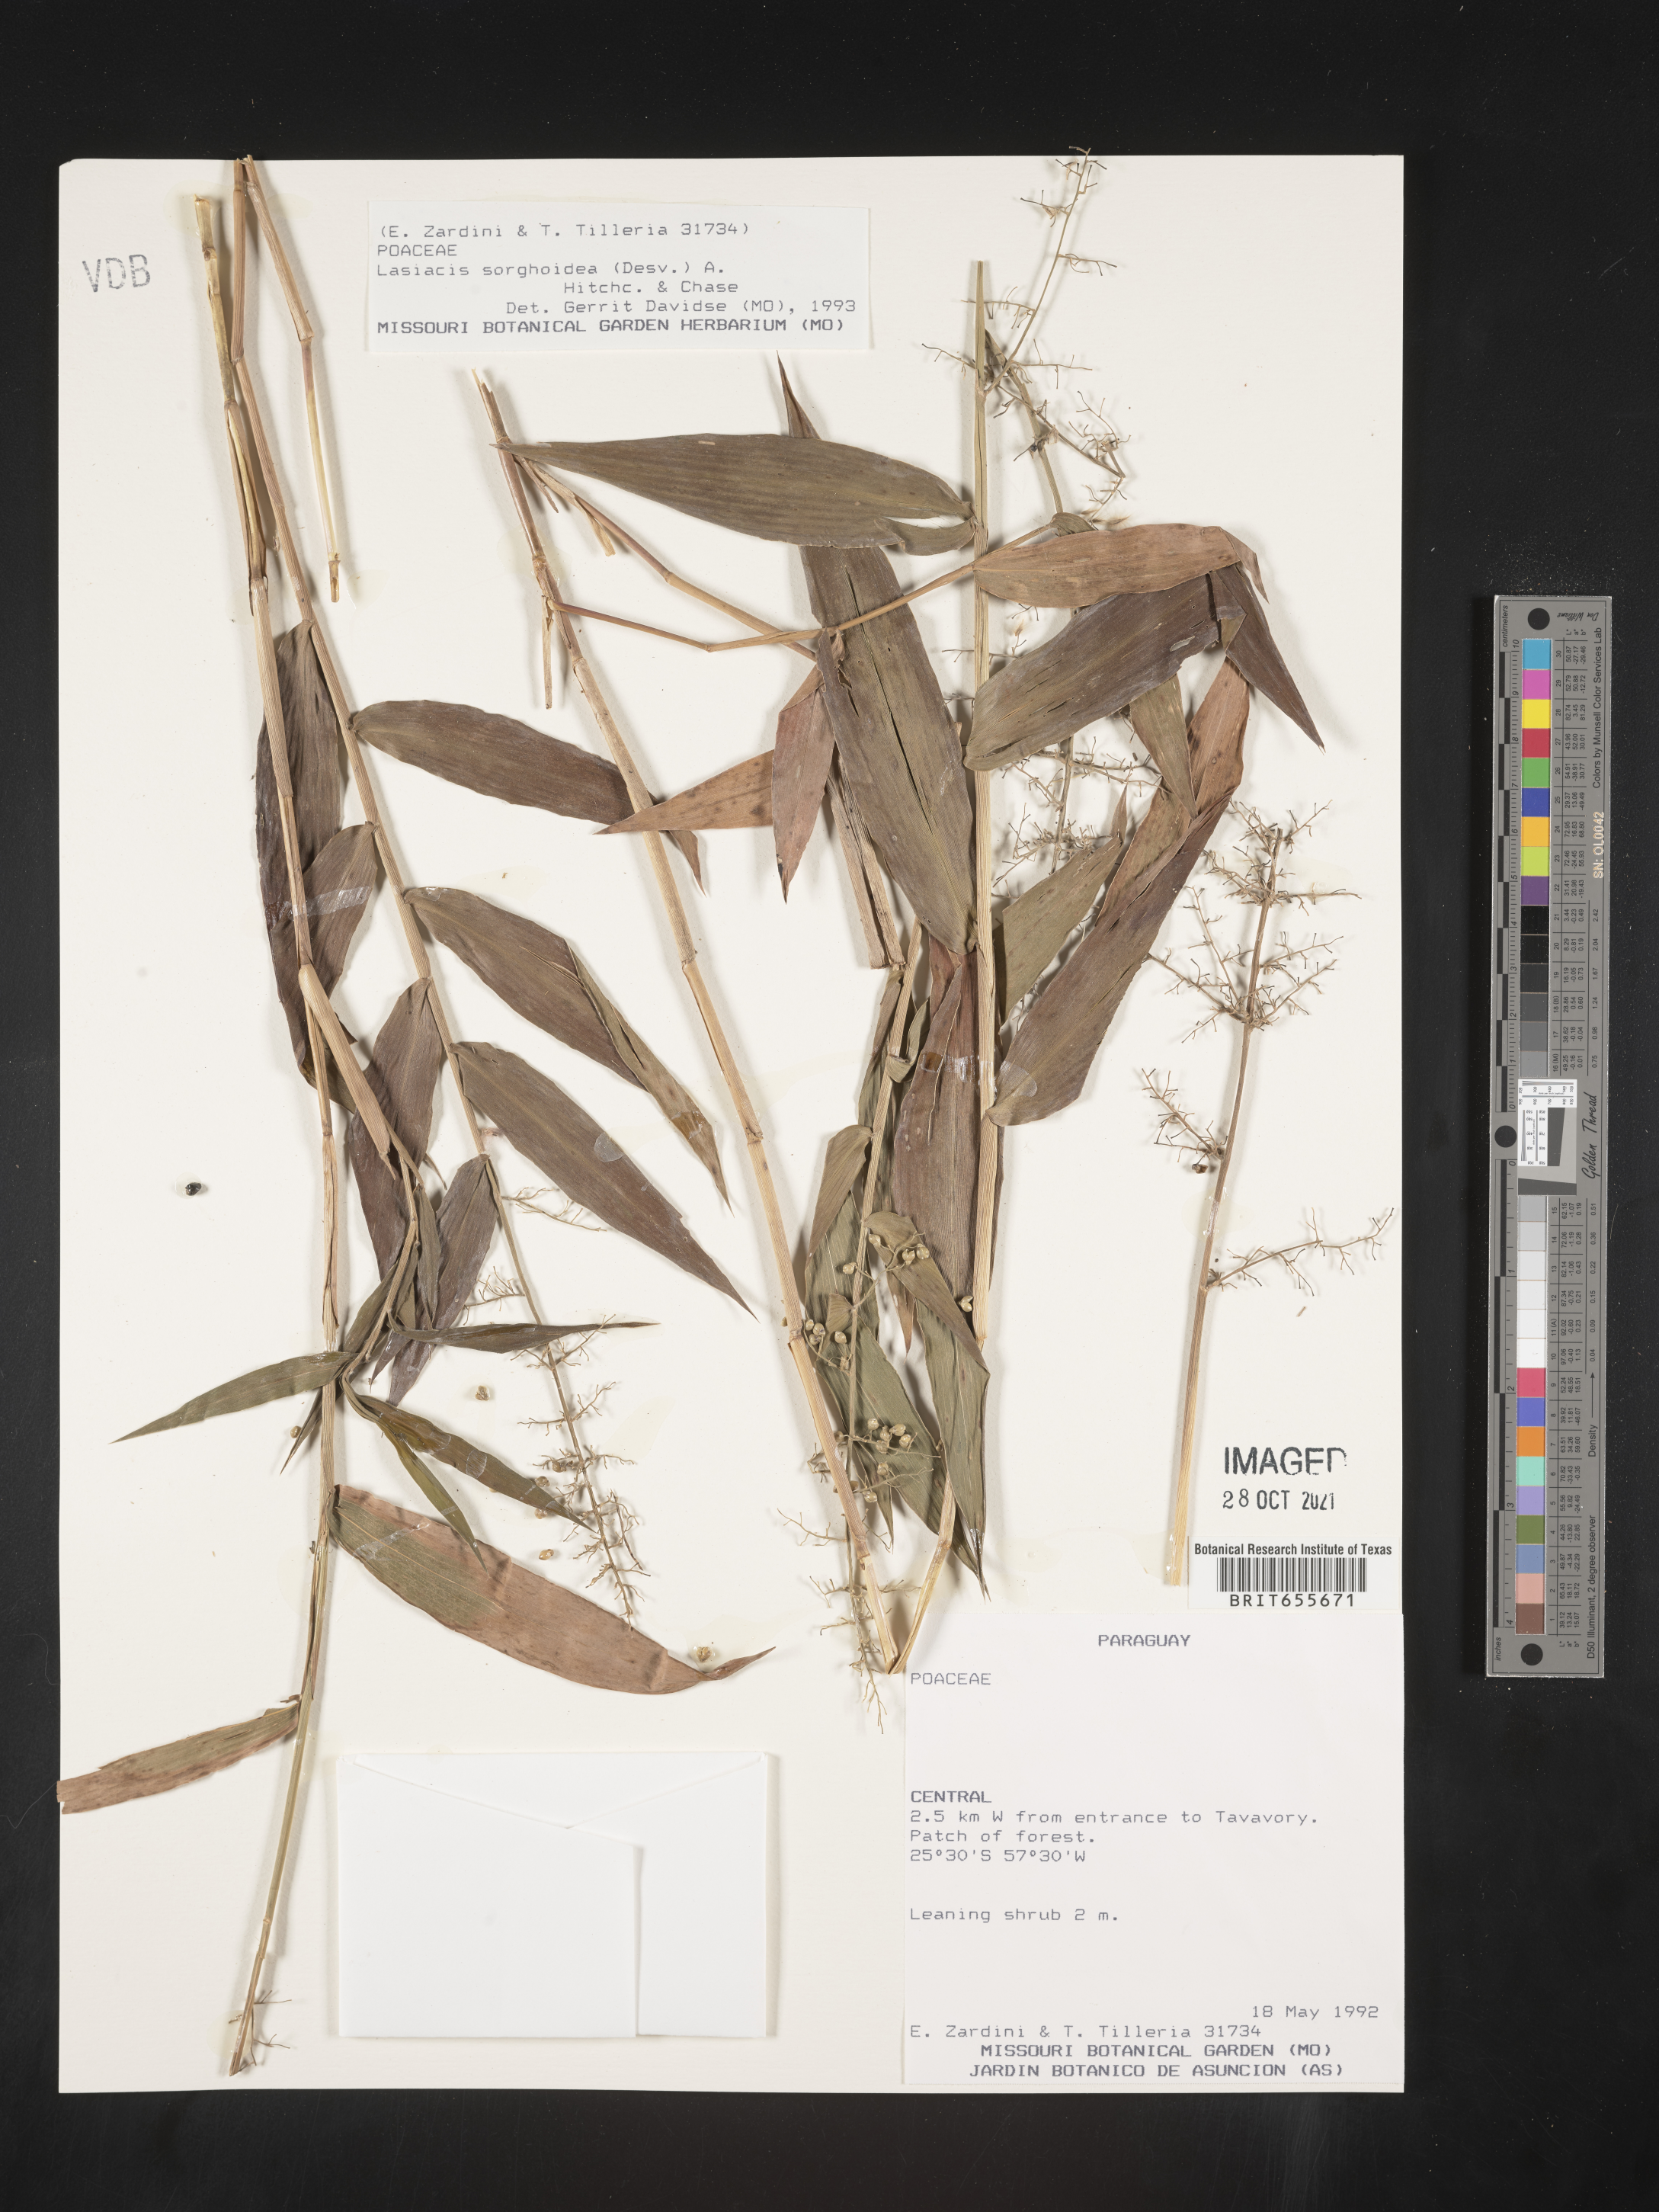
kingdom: Plantae
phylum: Tracheophyta
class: Liliopsida
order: Poales
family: Poaceae
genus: Lasiacis
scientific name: Lasiacis
